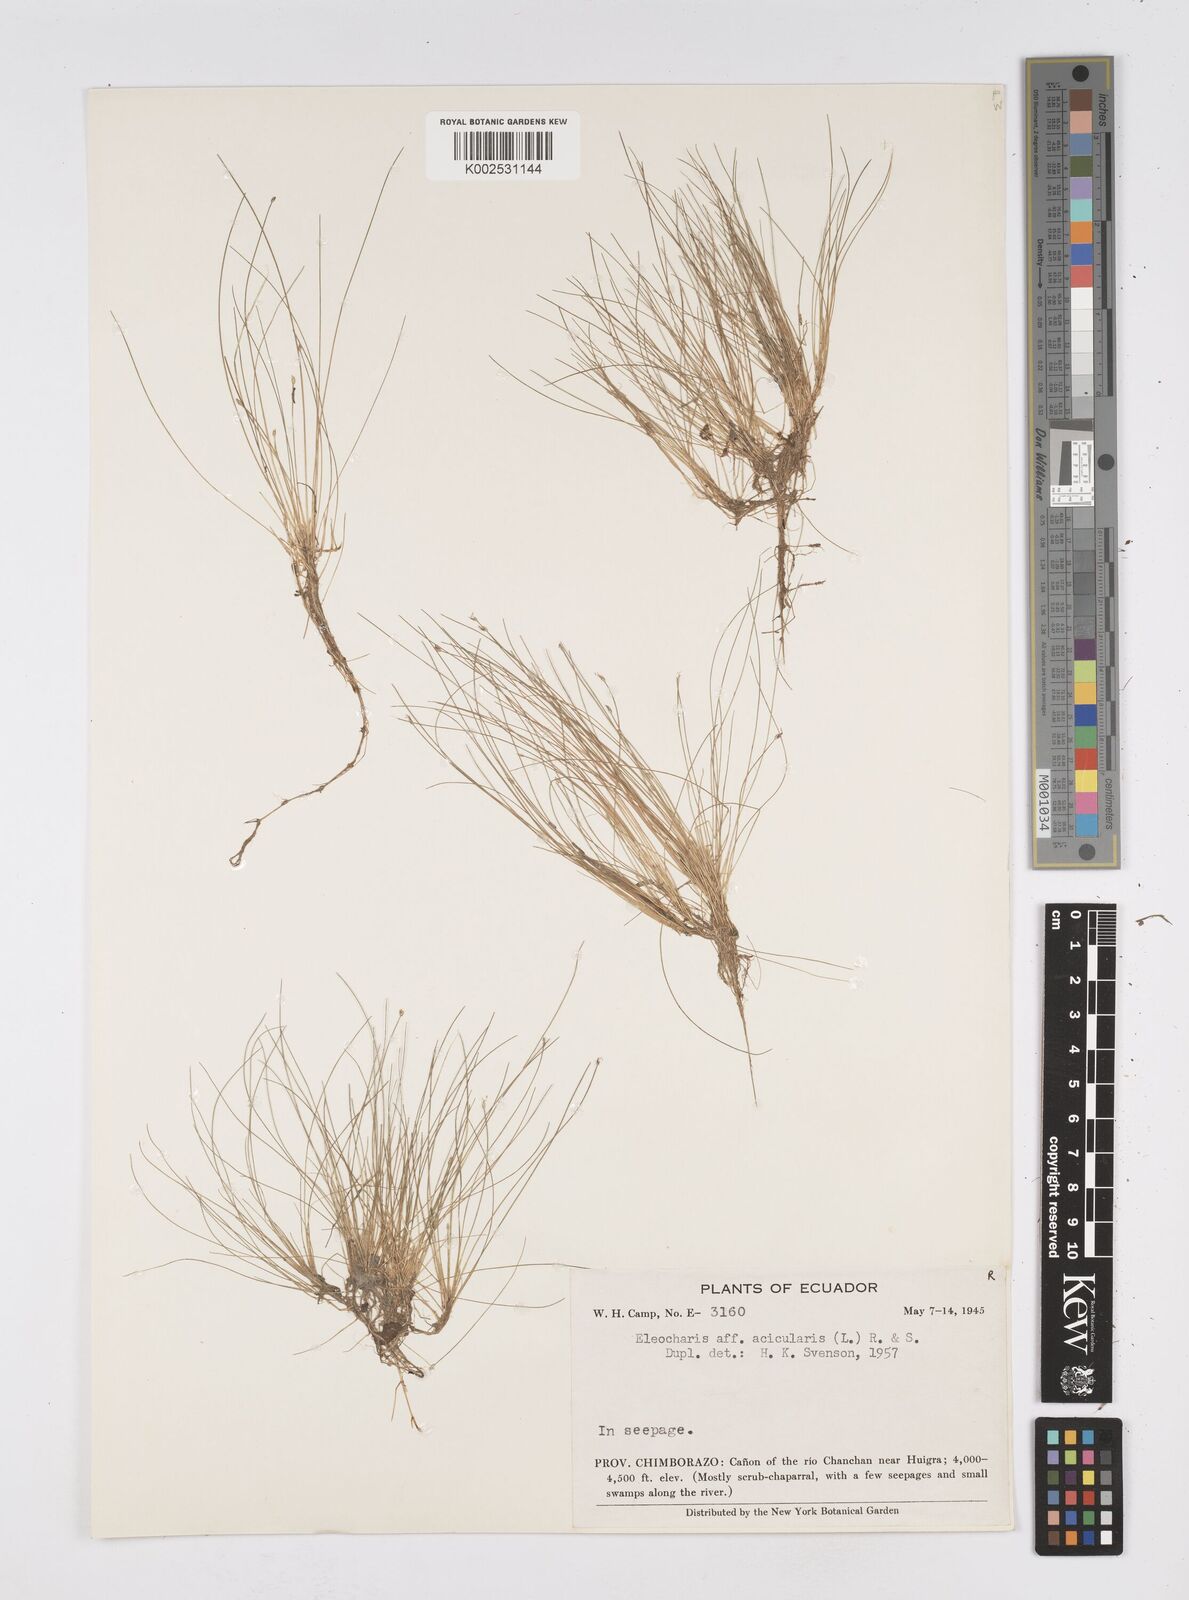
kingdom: Plantae
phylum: Tracheophyta
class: Liliopsida
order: Poales
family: Cyperaceae
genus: Eleocharis
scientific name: Eleocharis acicularis
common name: Needle spike-rush
